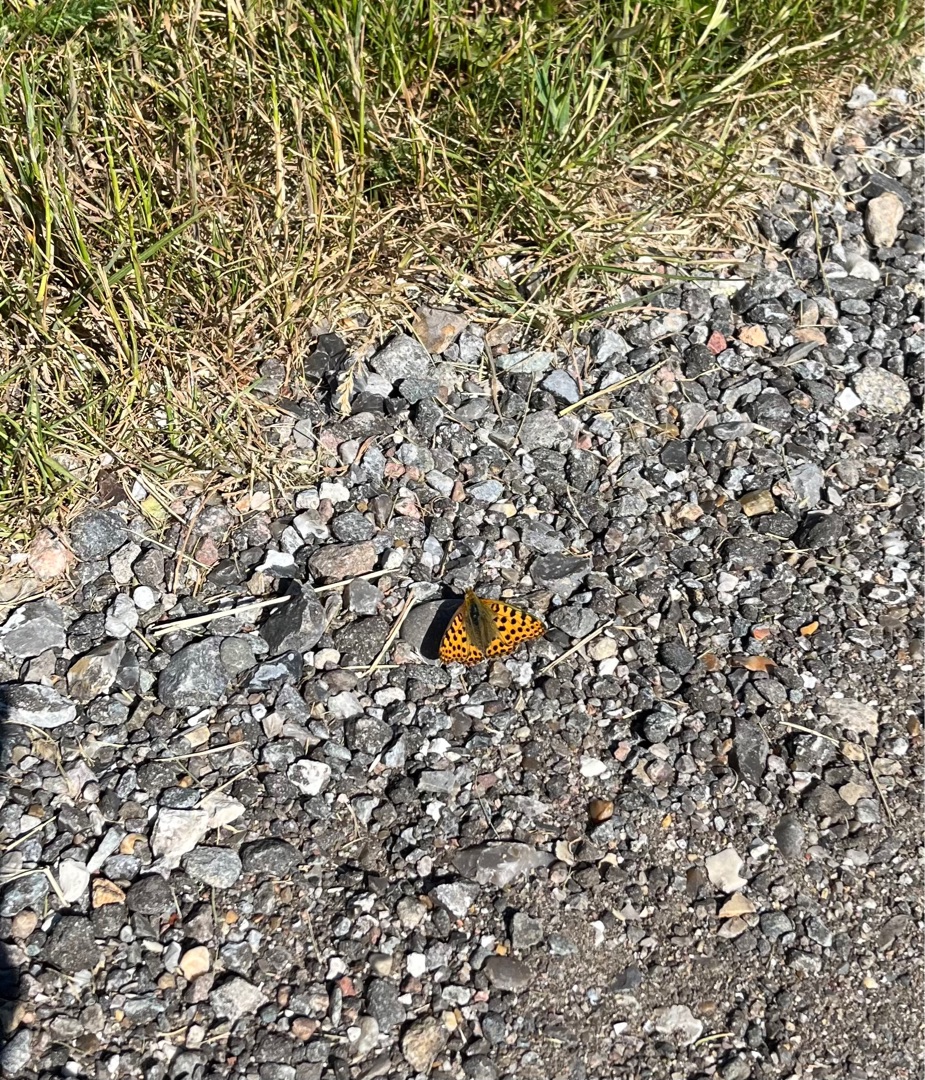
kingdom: Animalia
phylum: Arthropoda
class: Insecta
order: Lepidoptera
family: Nymphalidae
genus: Issoria
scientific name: Issoria lathonia
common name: Storplettet perlemorsommerfugl
